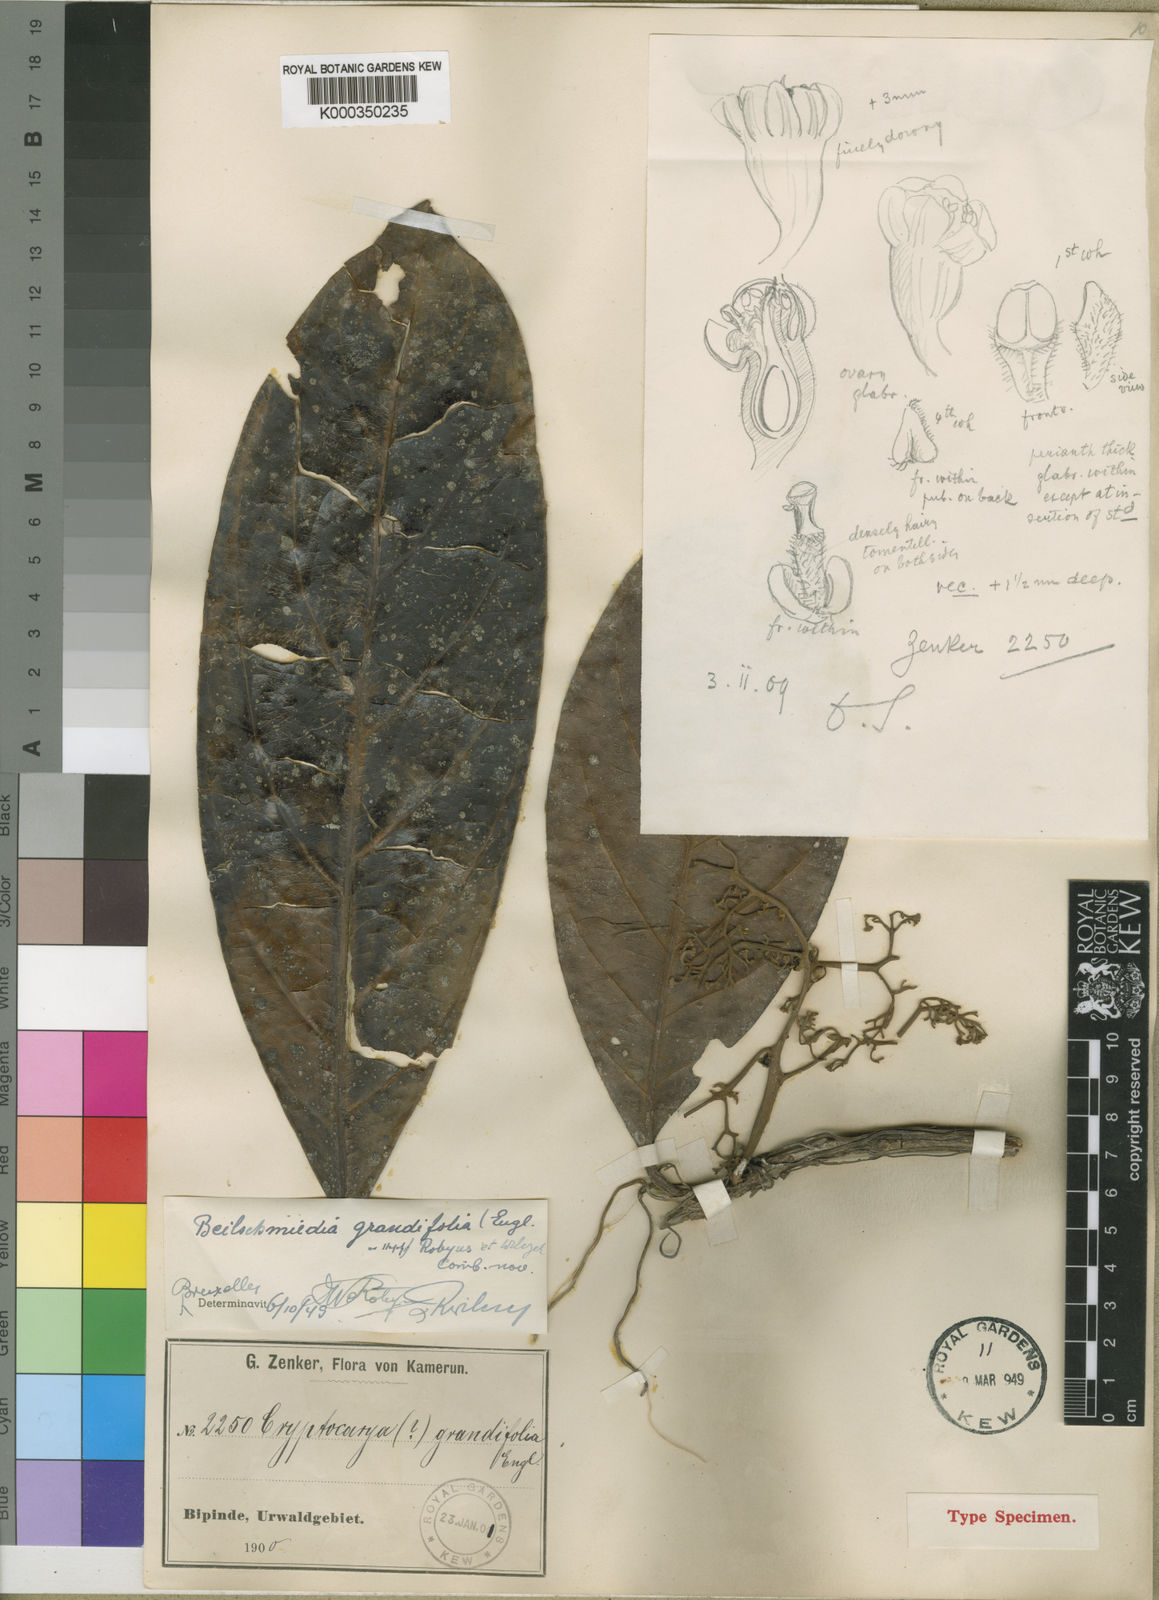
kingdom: Plantae
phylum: Tracheophyta
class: Magnoliopsida
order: Laurales
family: Lauraceae
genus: Beilschmiedia
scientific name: Beilschmiedia grandifolia
